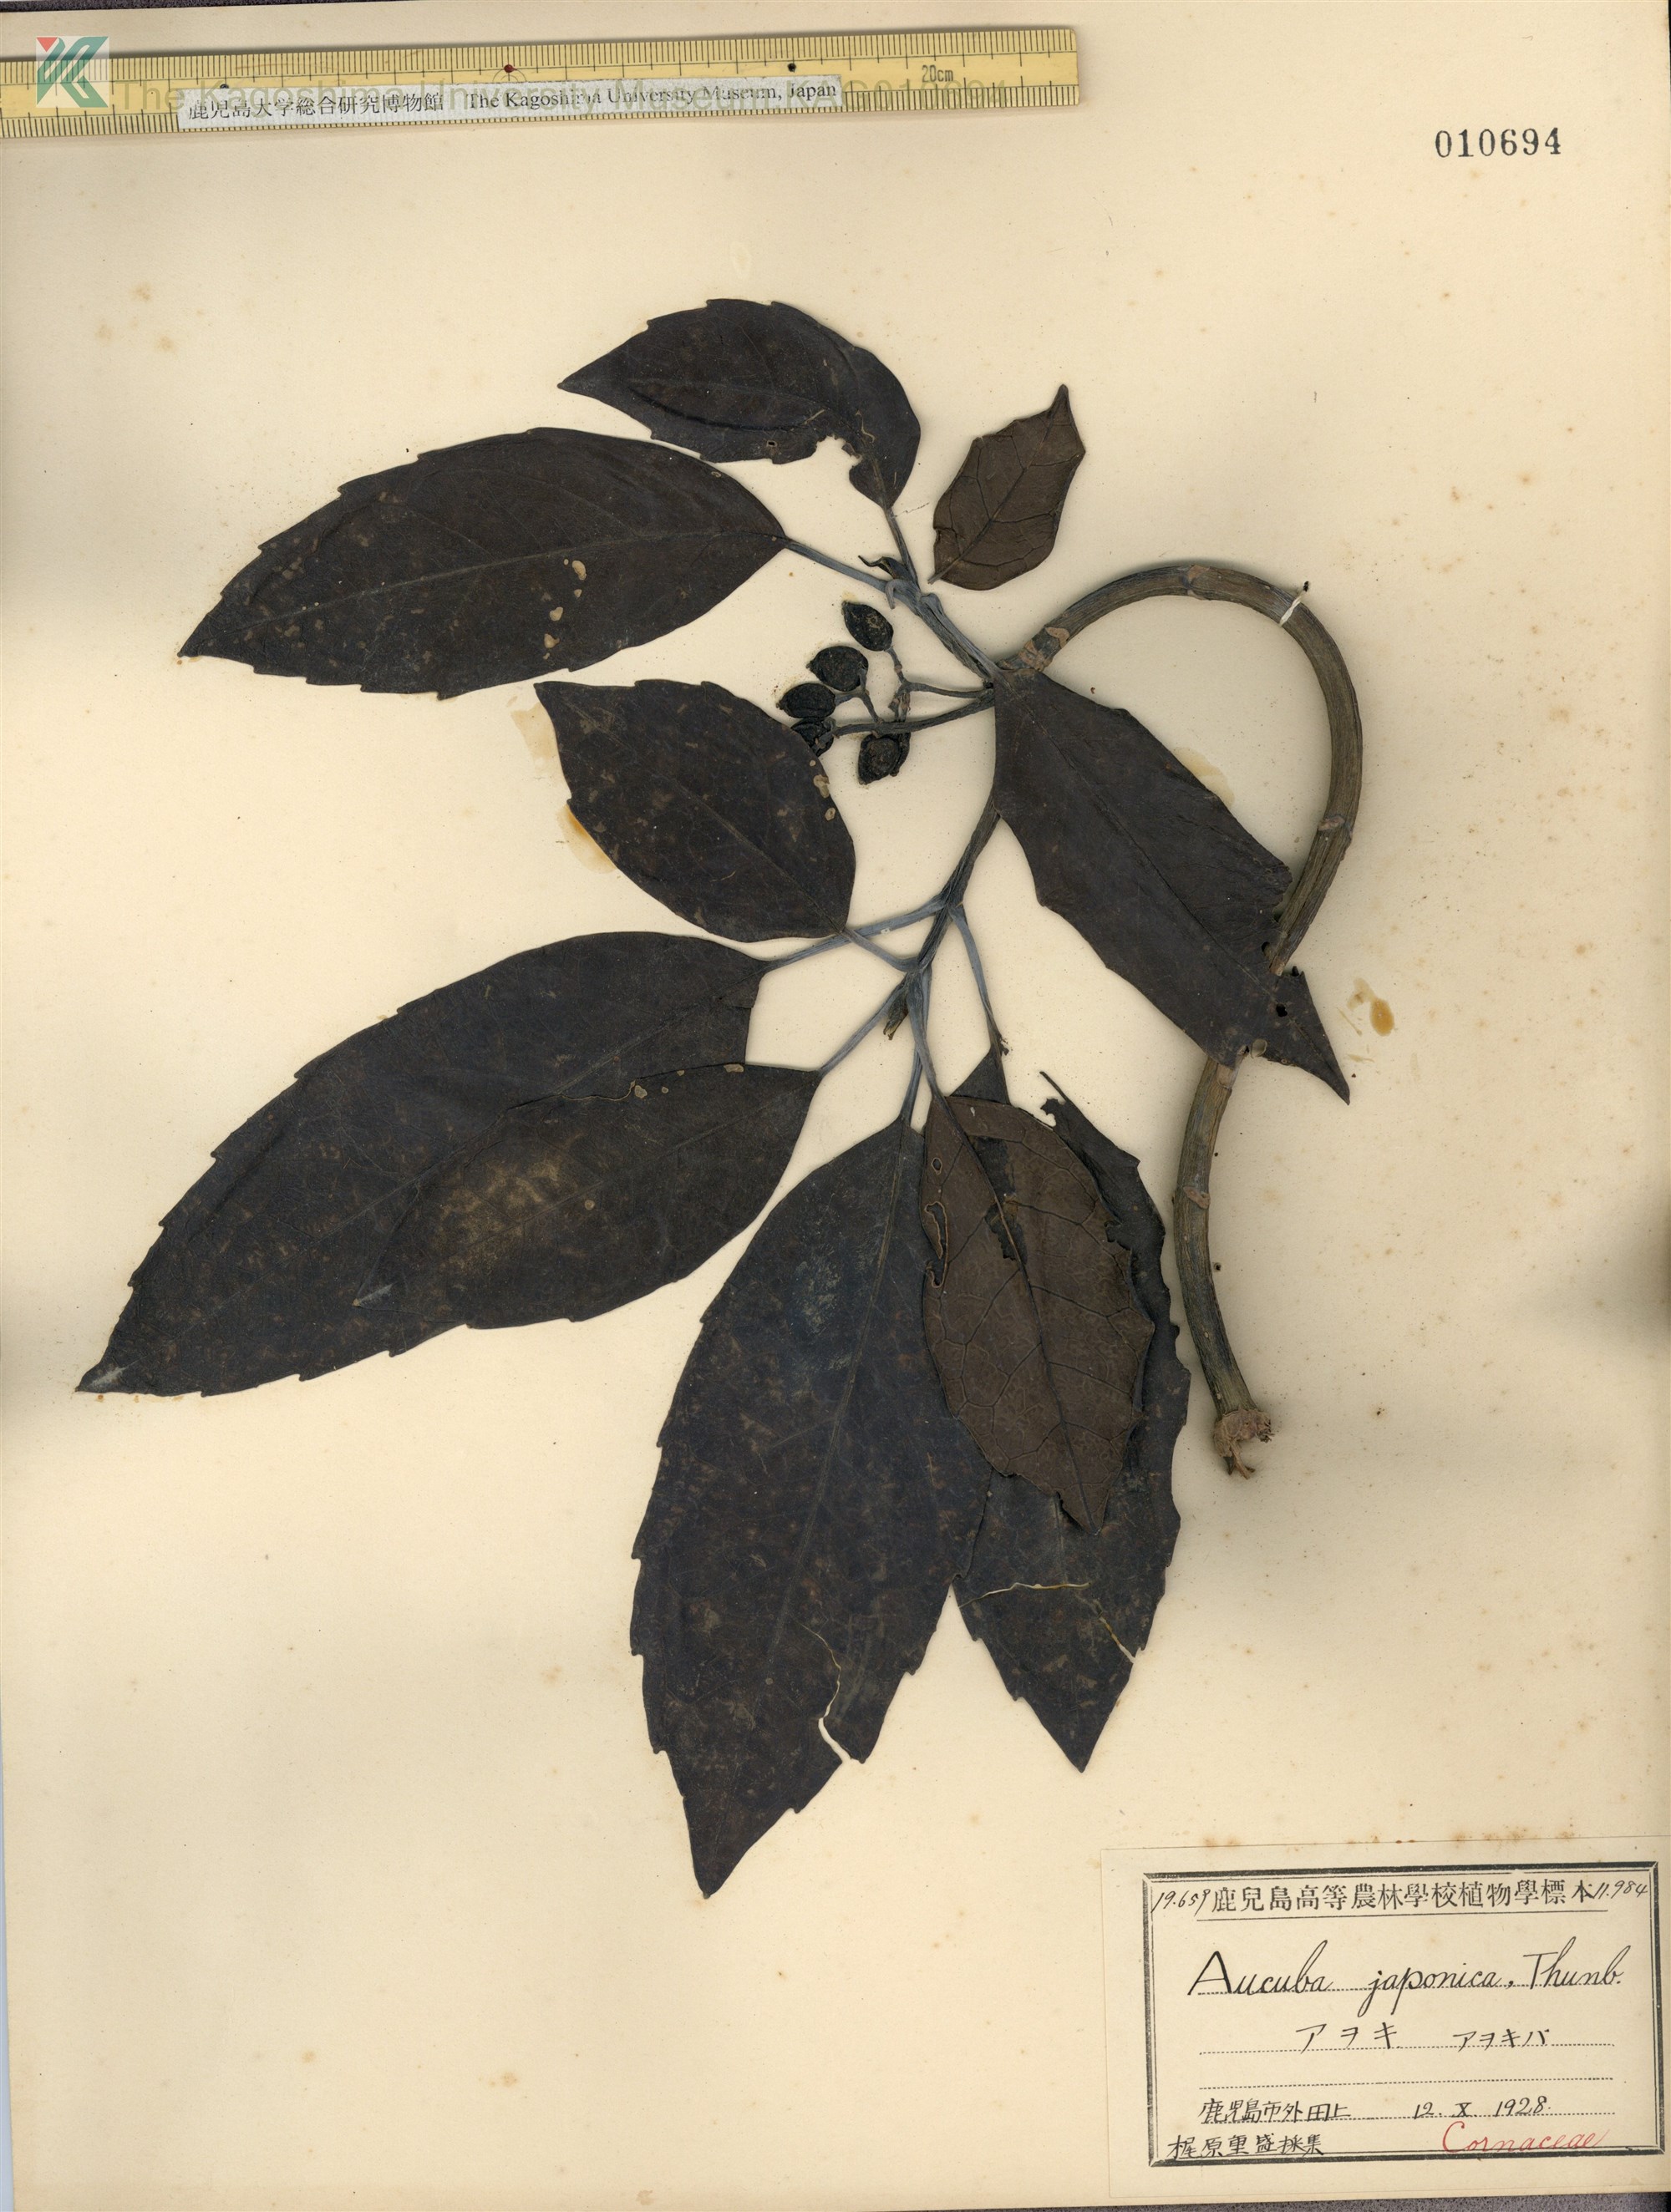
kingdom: Plantae
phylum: Tracheophyta
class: Magnoliopsida
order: Garryales
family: Garryaceae
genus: Aucuba
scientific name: Aucuba japonica
